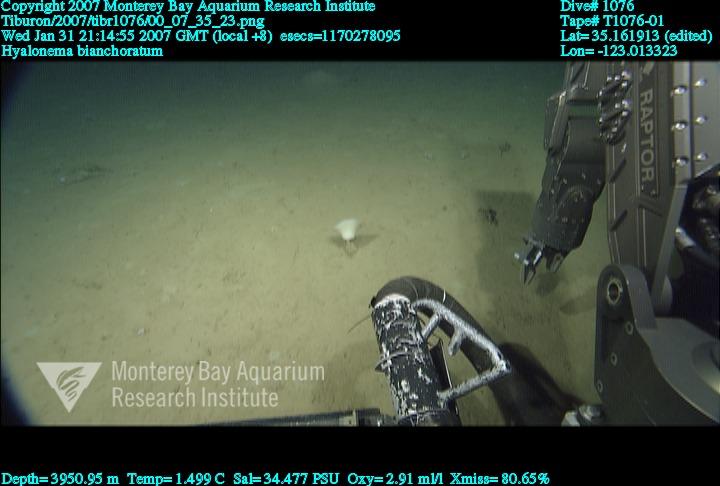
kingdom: Animalia
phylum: Porifera
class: Hexactinellida
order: Amphidiscosida
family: Hyalonematidae
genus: Hyalonema
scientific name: Hyalonema bianchoratum
